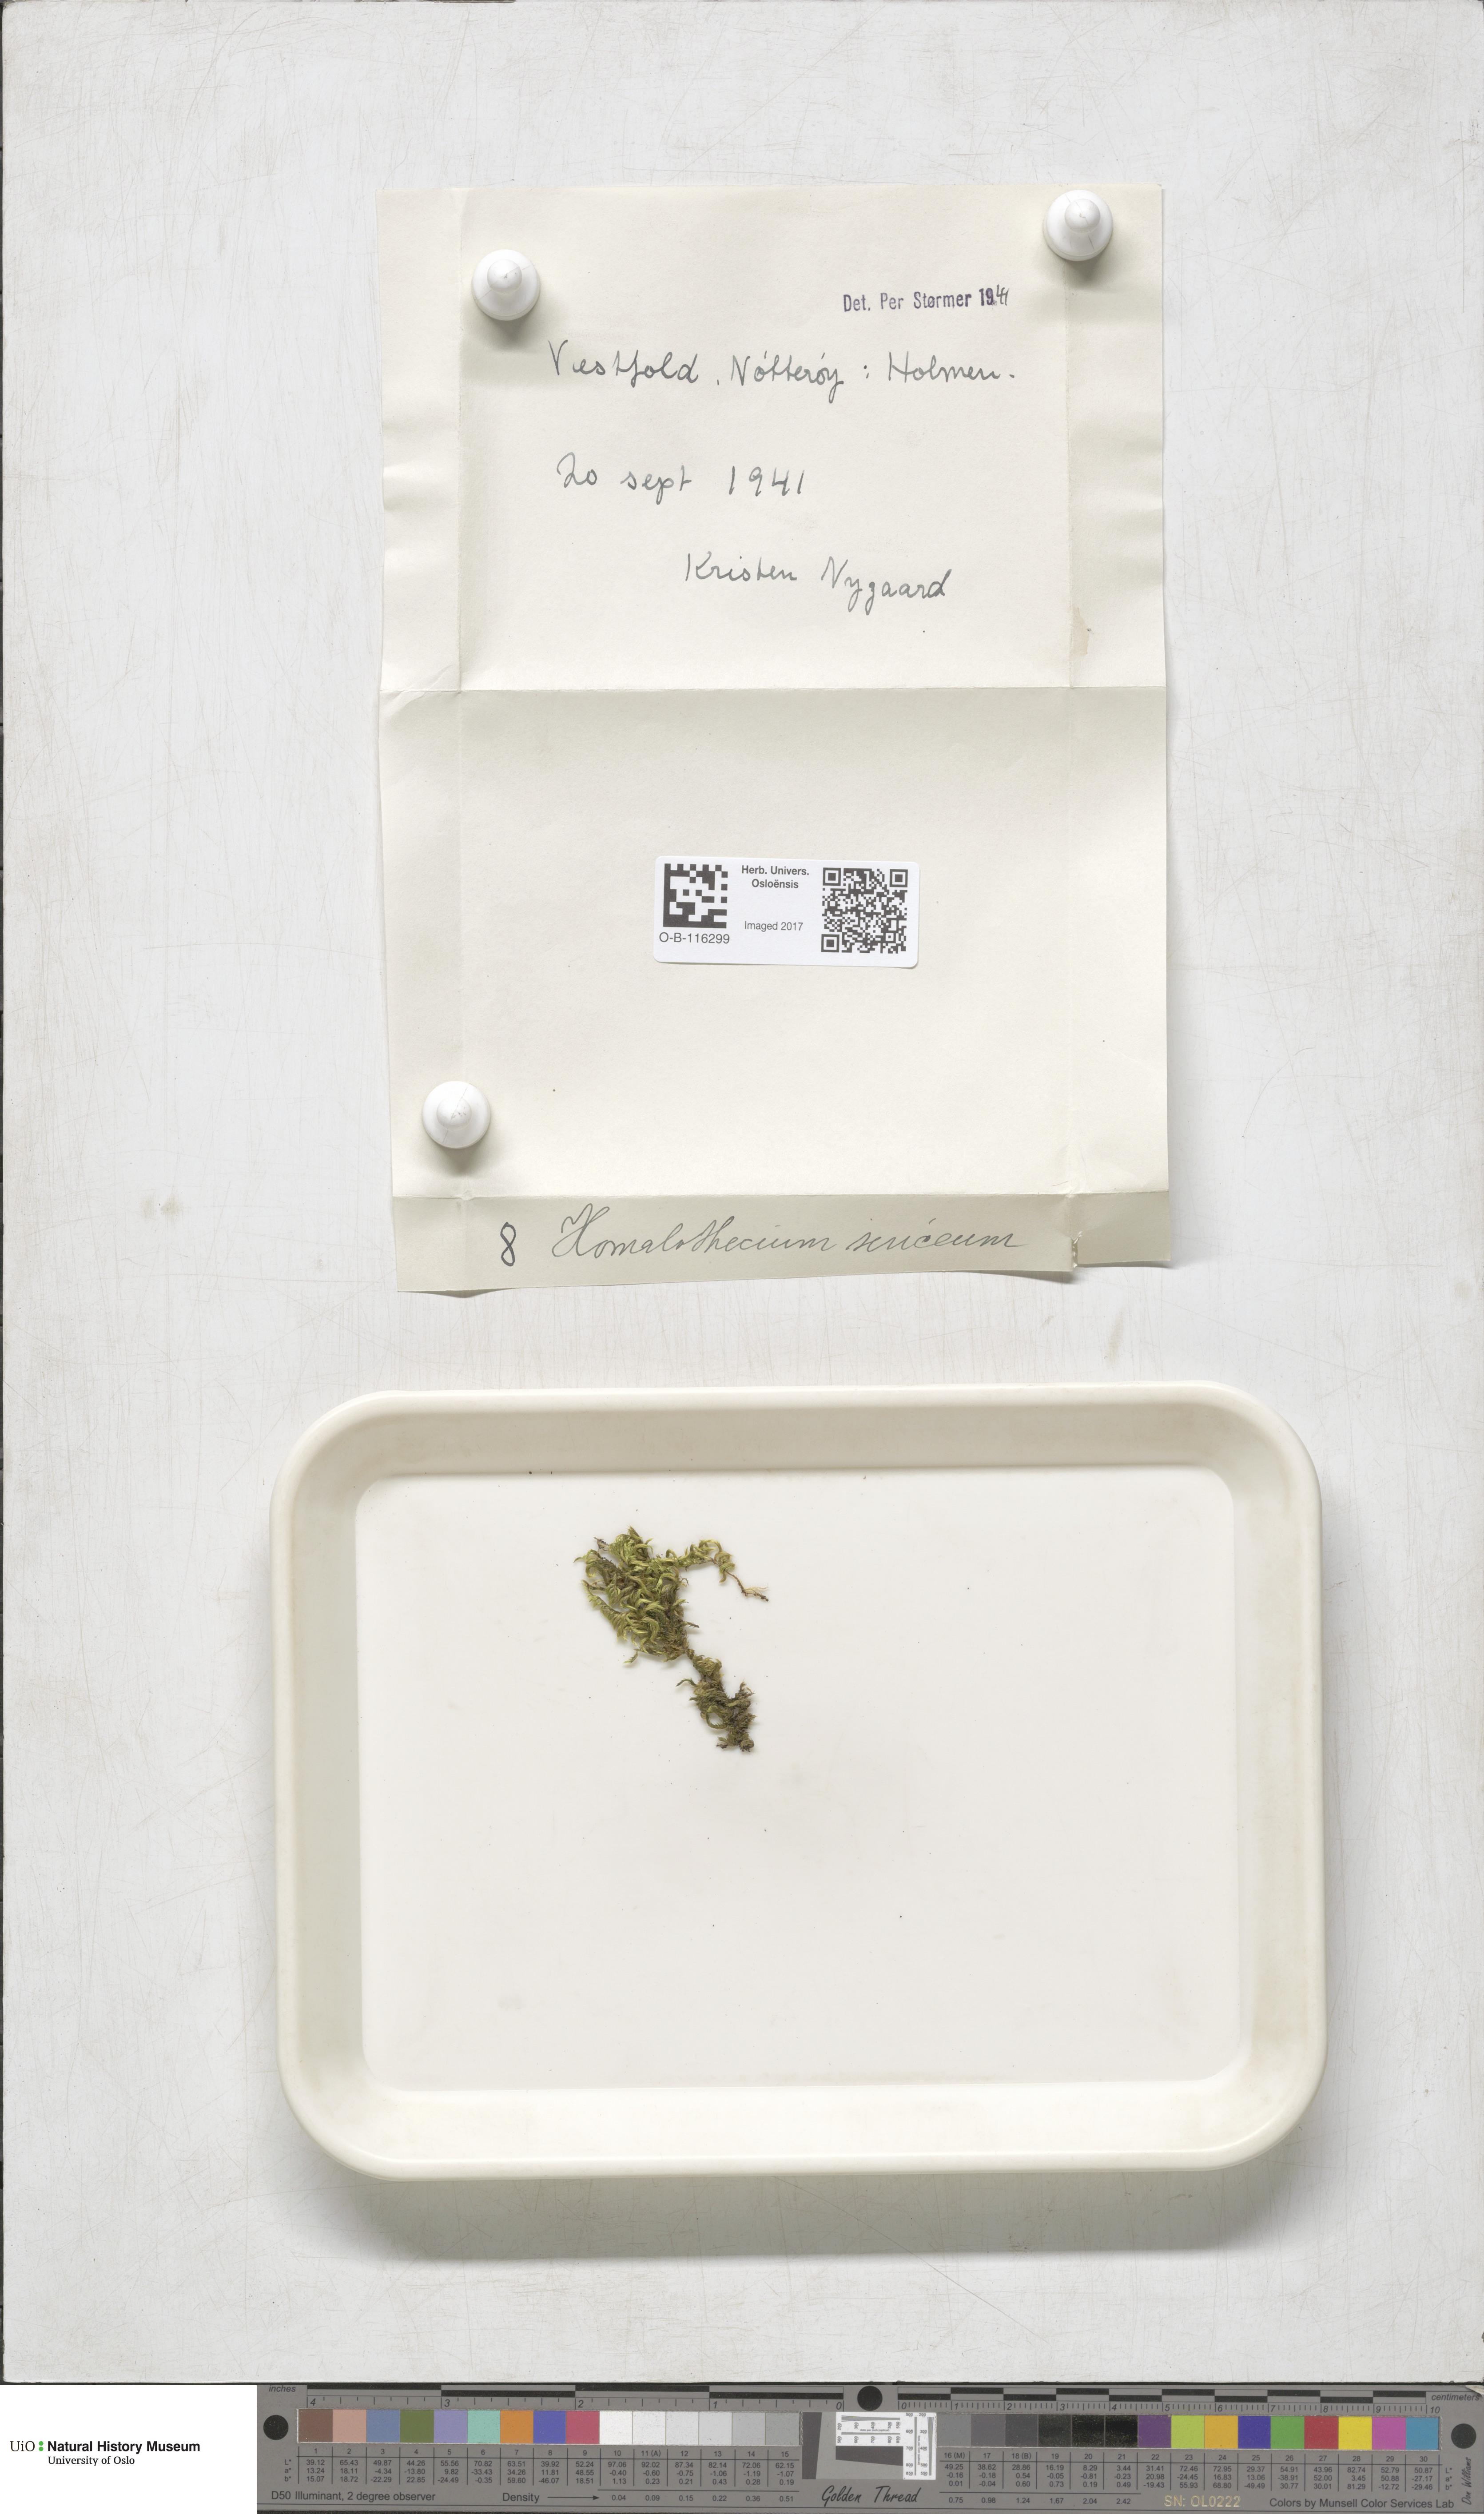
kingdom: Plantae
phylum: Bryophyta
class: Bryopsida
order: Hypnales
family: Brachytheciaceae
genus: Homalothecium
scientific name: Homalothecium sericeum
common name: Silky wall feather-moss
